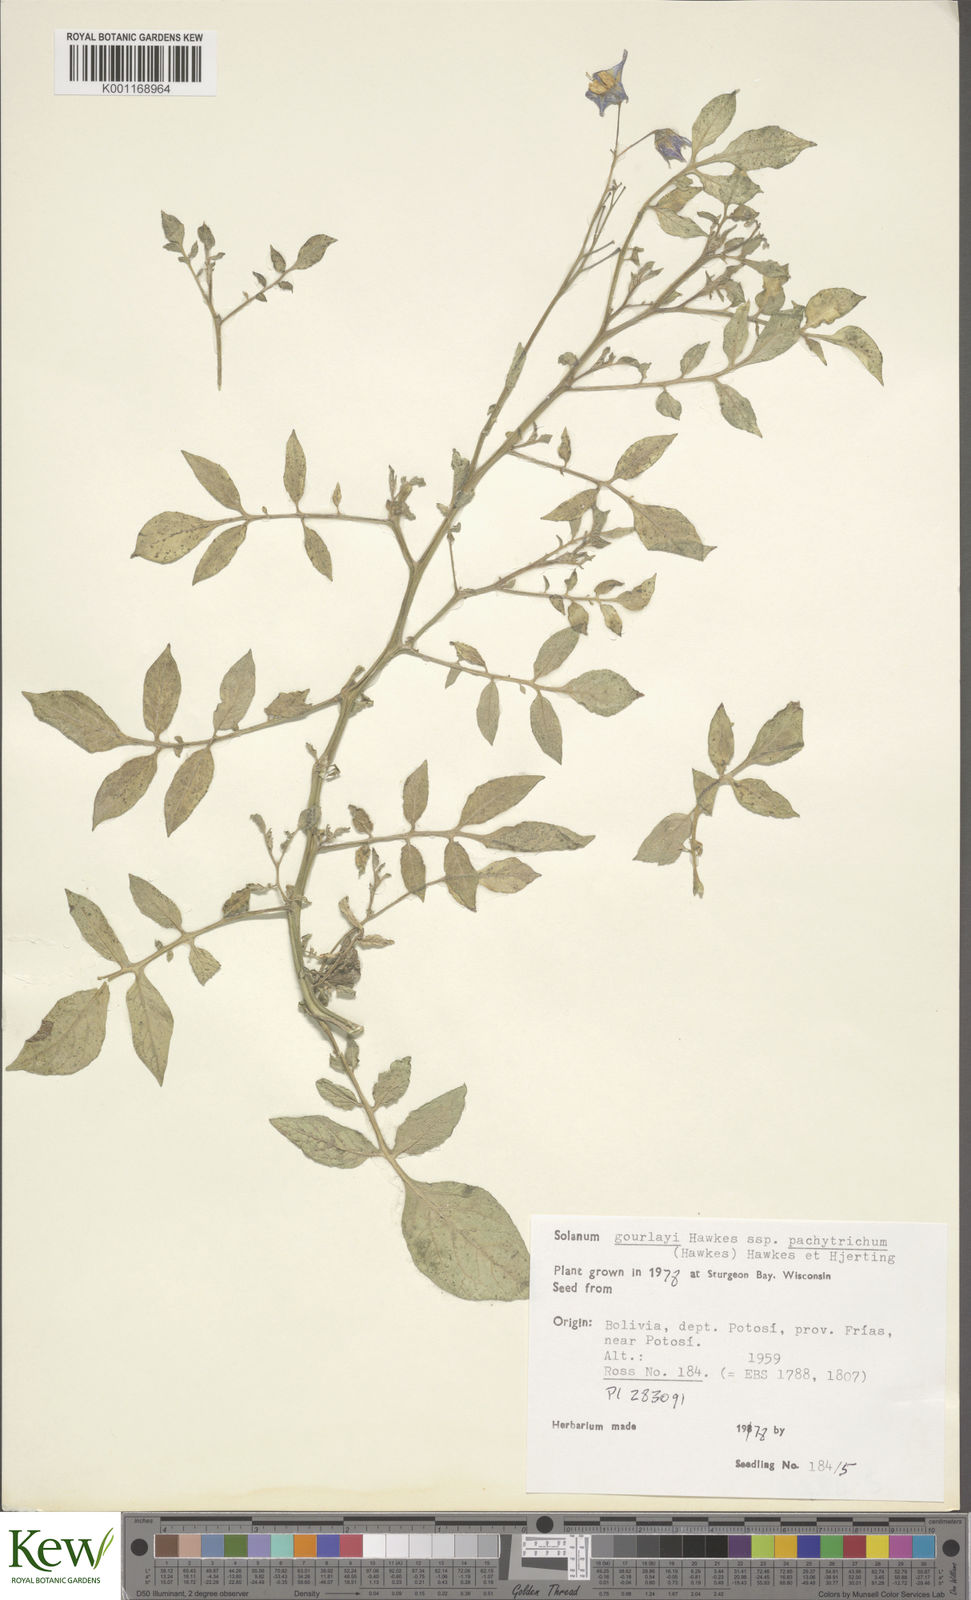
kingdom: Plantae
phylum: Tracheophyta
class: Magnoliopsida
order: Solanales
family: Solanaceae
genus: Solanum
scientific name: Solanum brevicaule
